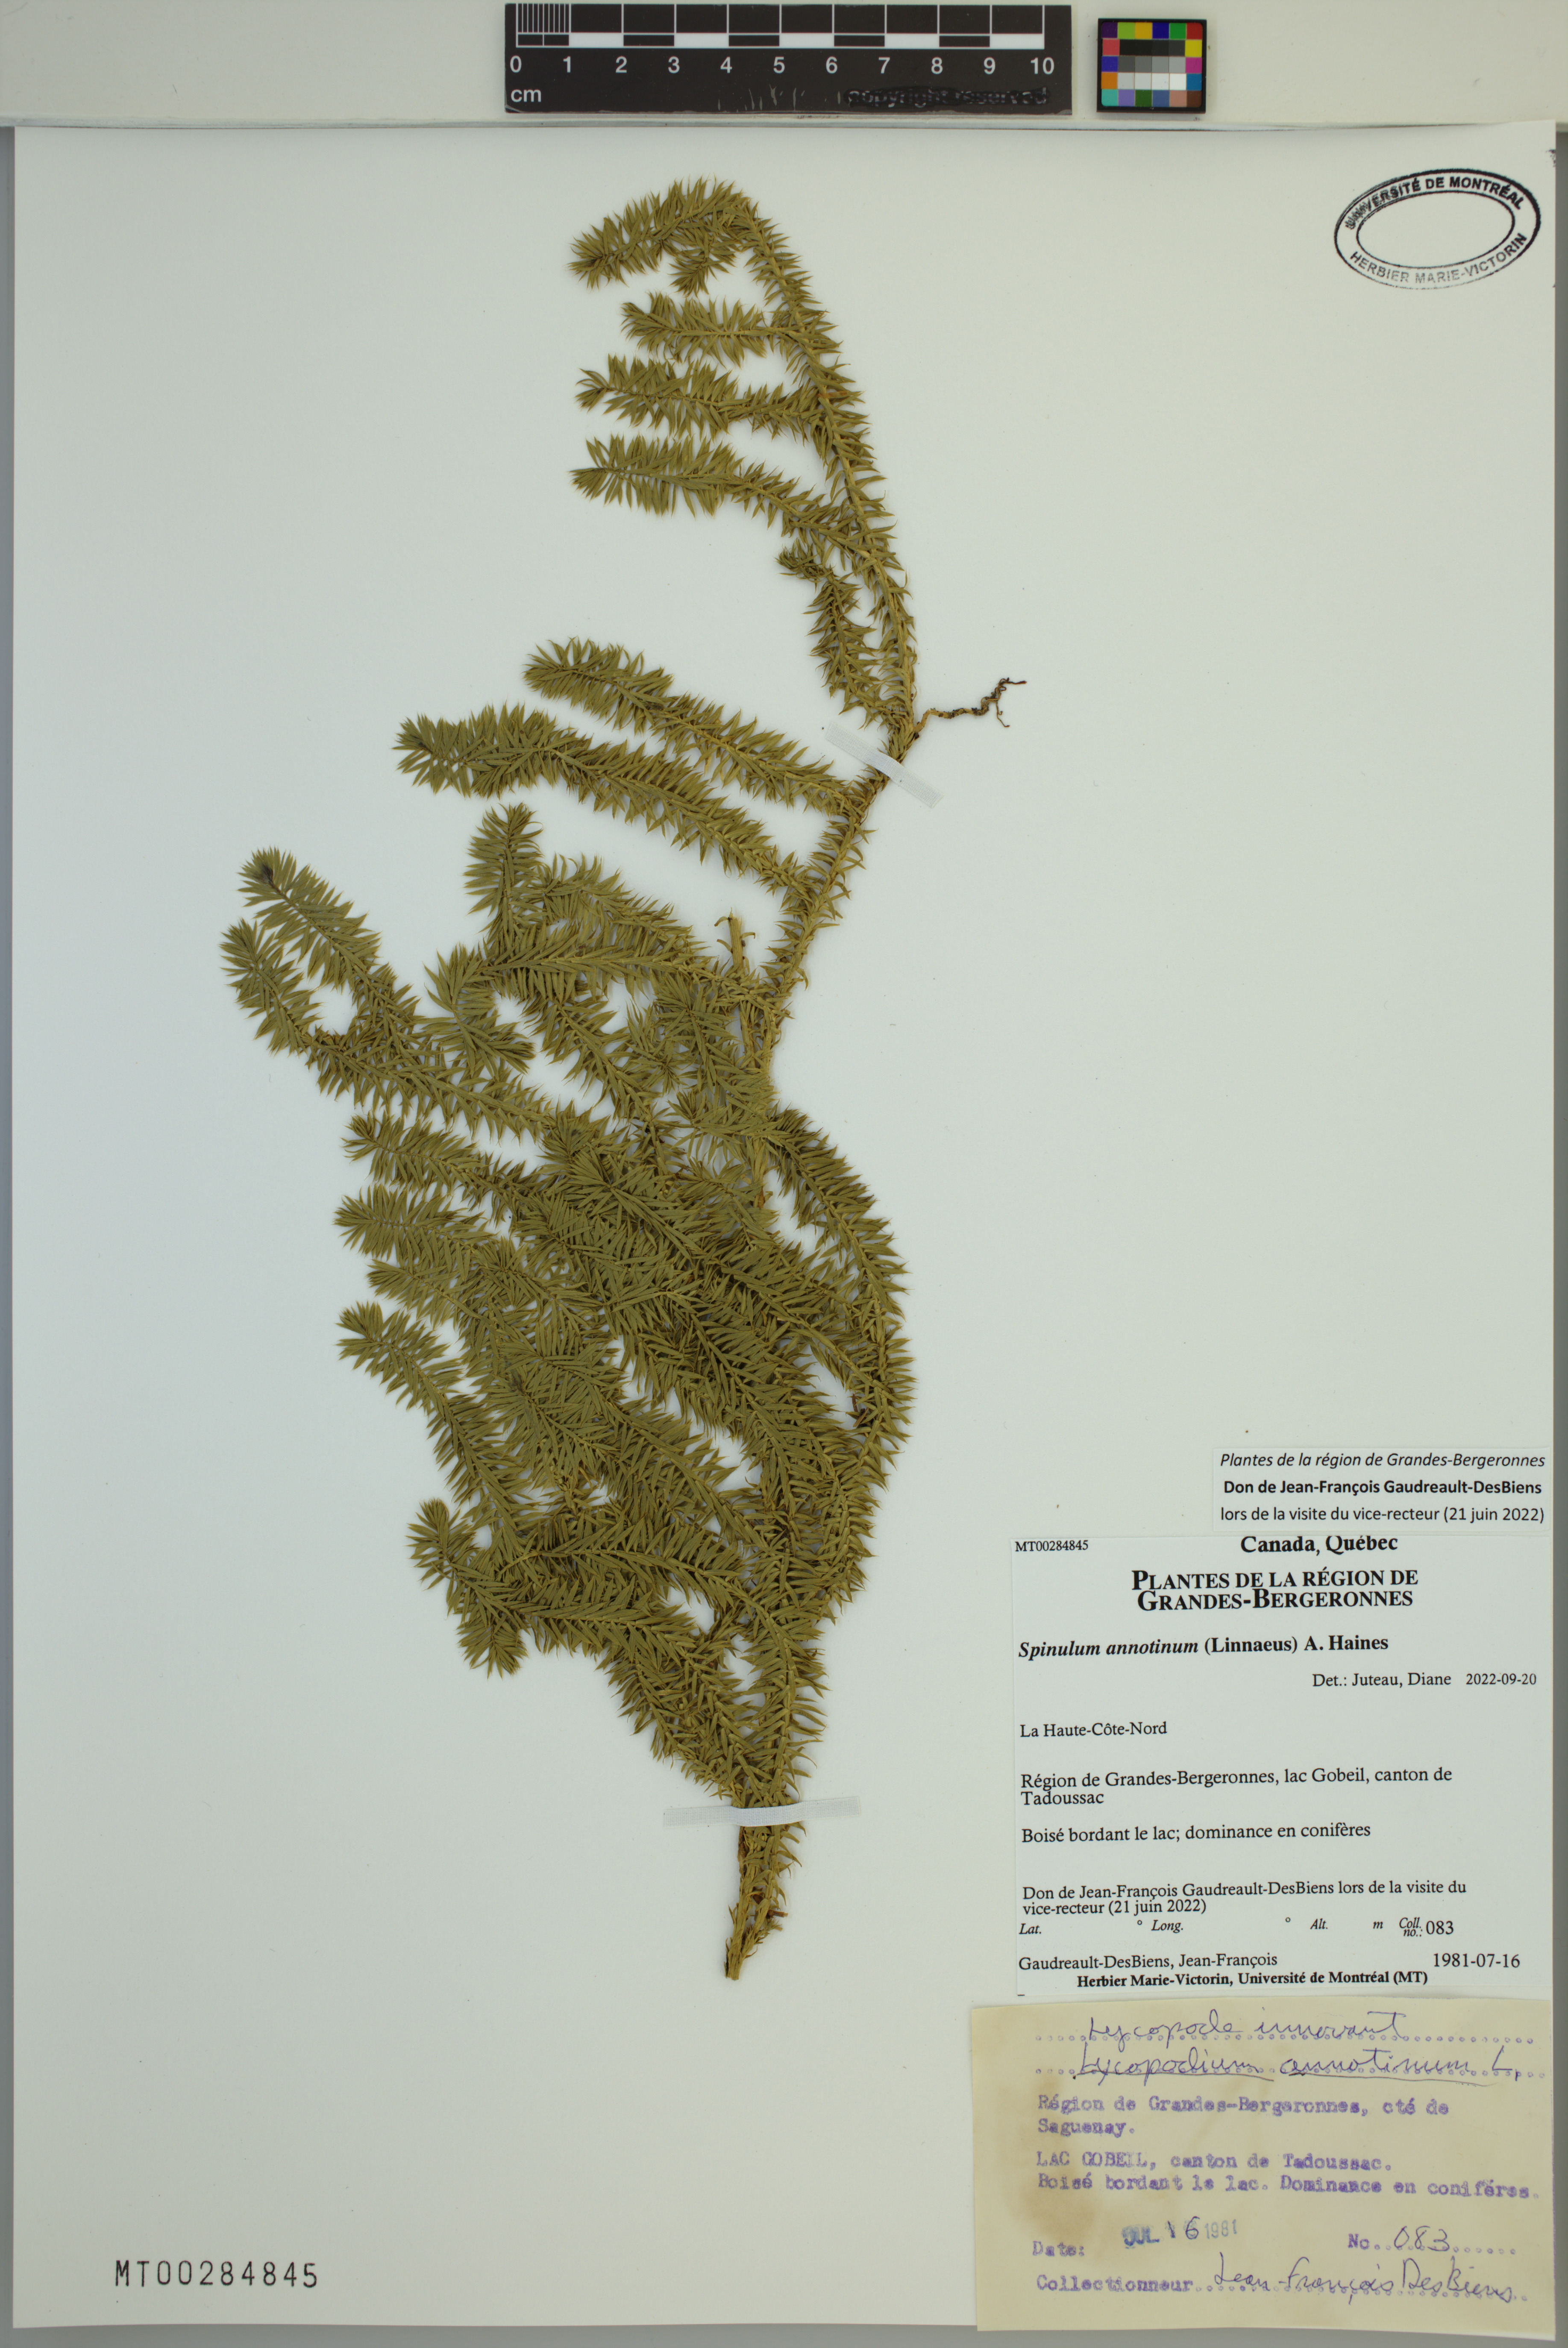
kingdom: Plantae
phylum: Tracheophyta
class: Lycopodiopsida
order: Lycopodiales
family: Lycopodiaceae
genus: Spinulum
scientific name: Spinulum annotinum
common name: Interrupted club-moss
